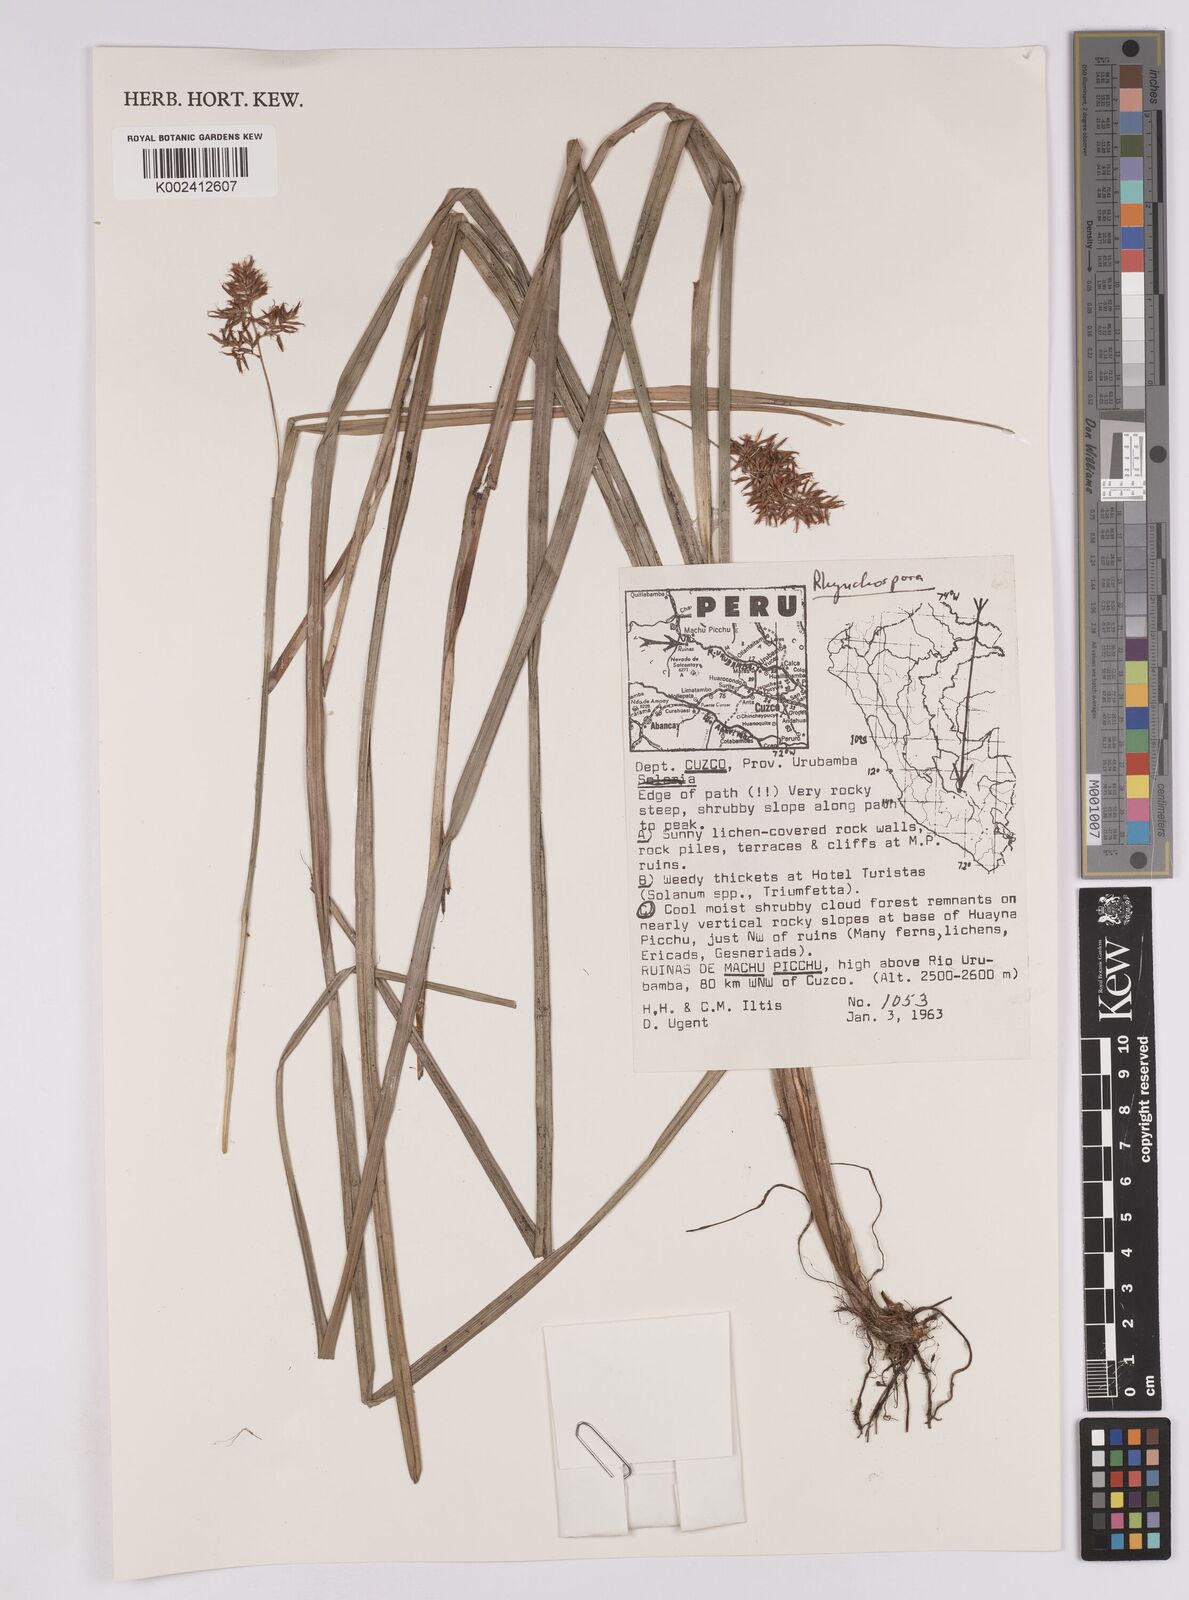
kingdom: Plantae
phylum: Tracheophyta
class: Liliopsida
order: Poales
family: Cyperaceae
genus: Rhynchospora
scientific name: Rhynchospora
